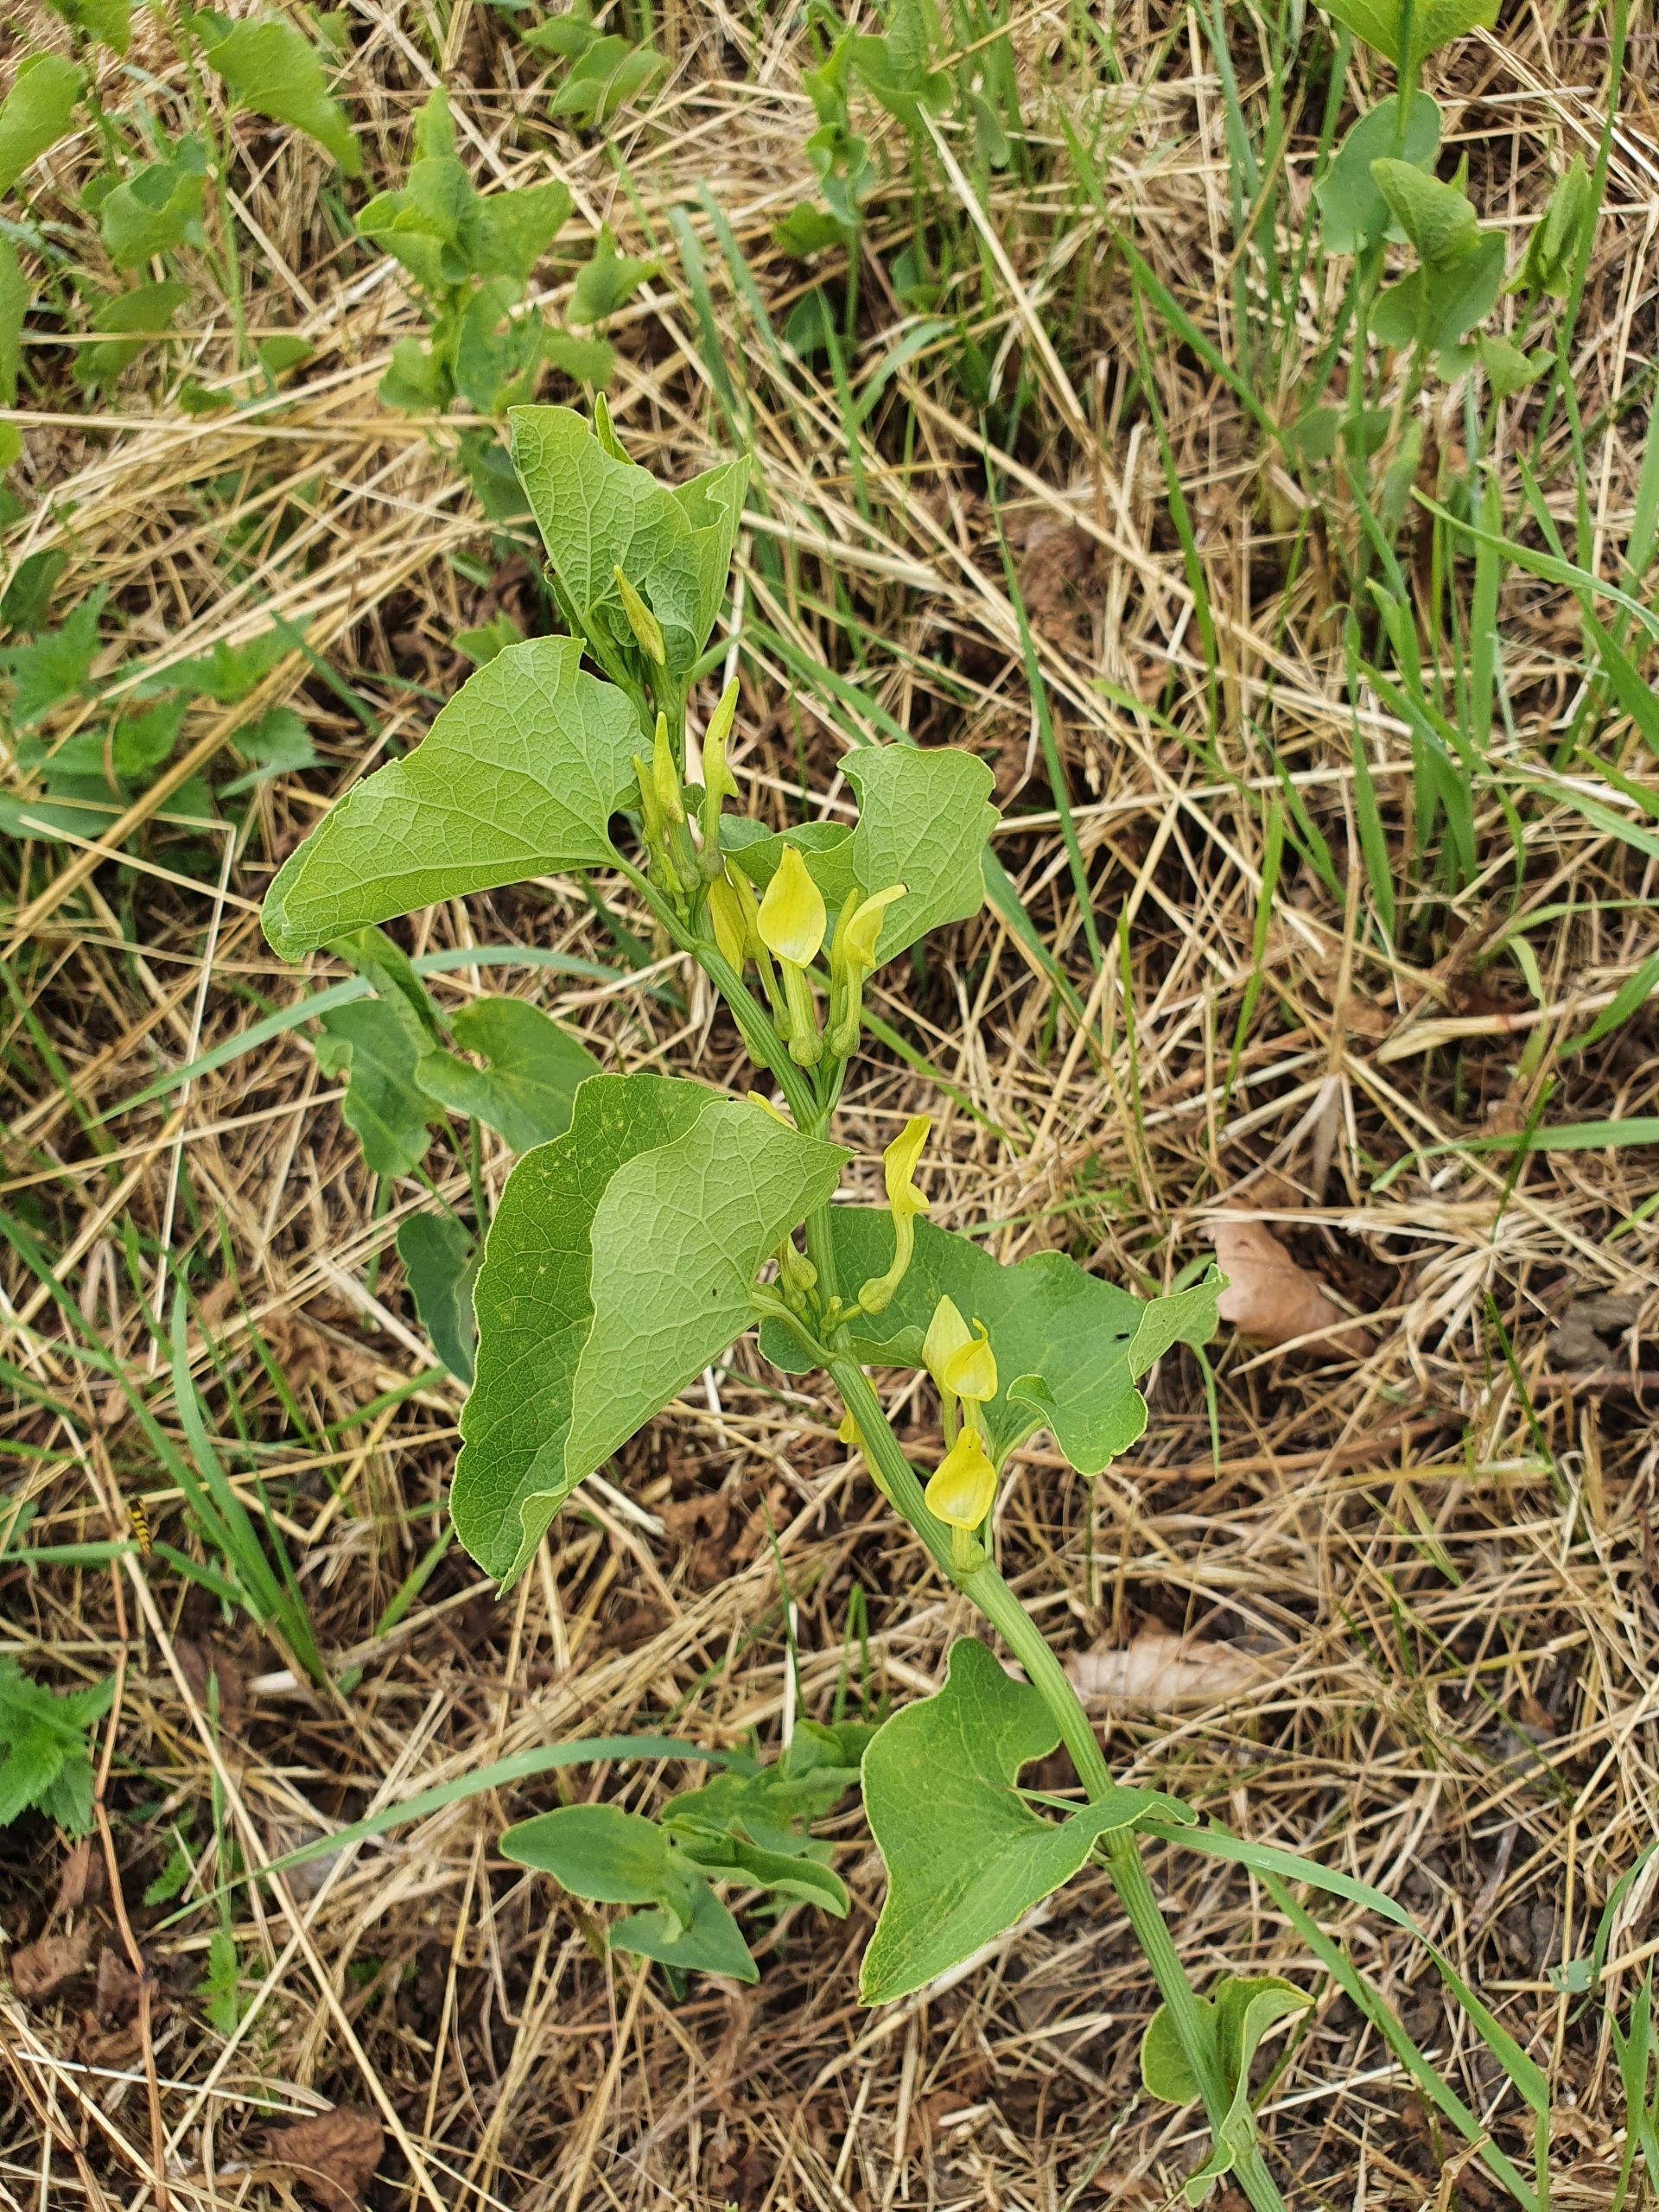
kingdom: Plantae
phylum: Tracheophyta
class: Magnoliopsida
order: Piperales
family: Aristolochiaceae
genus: Aristolochia
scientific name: Aristolochia clematitis
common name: Slangerod
